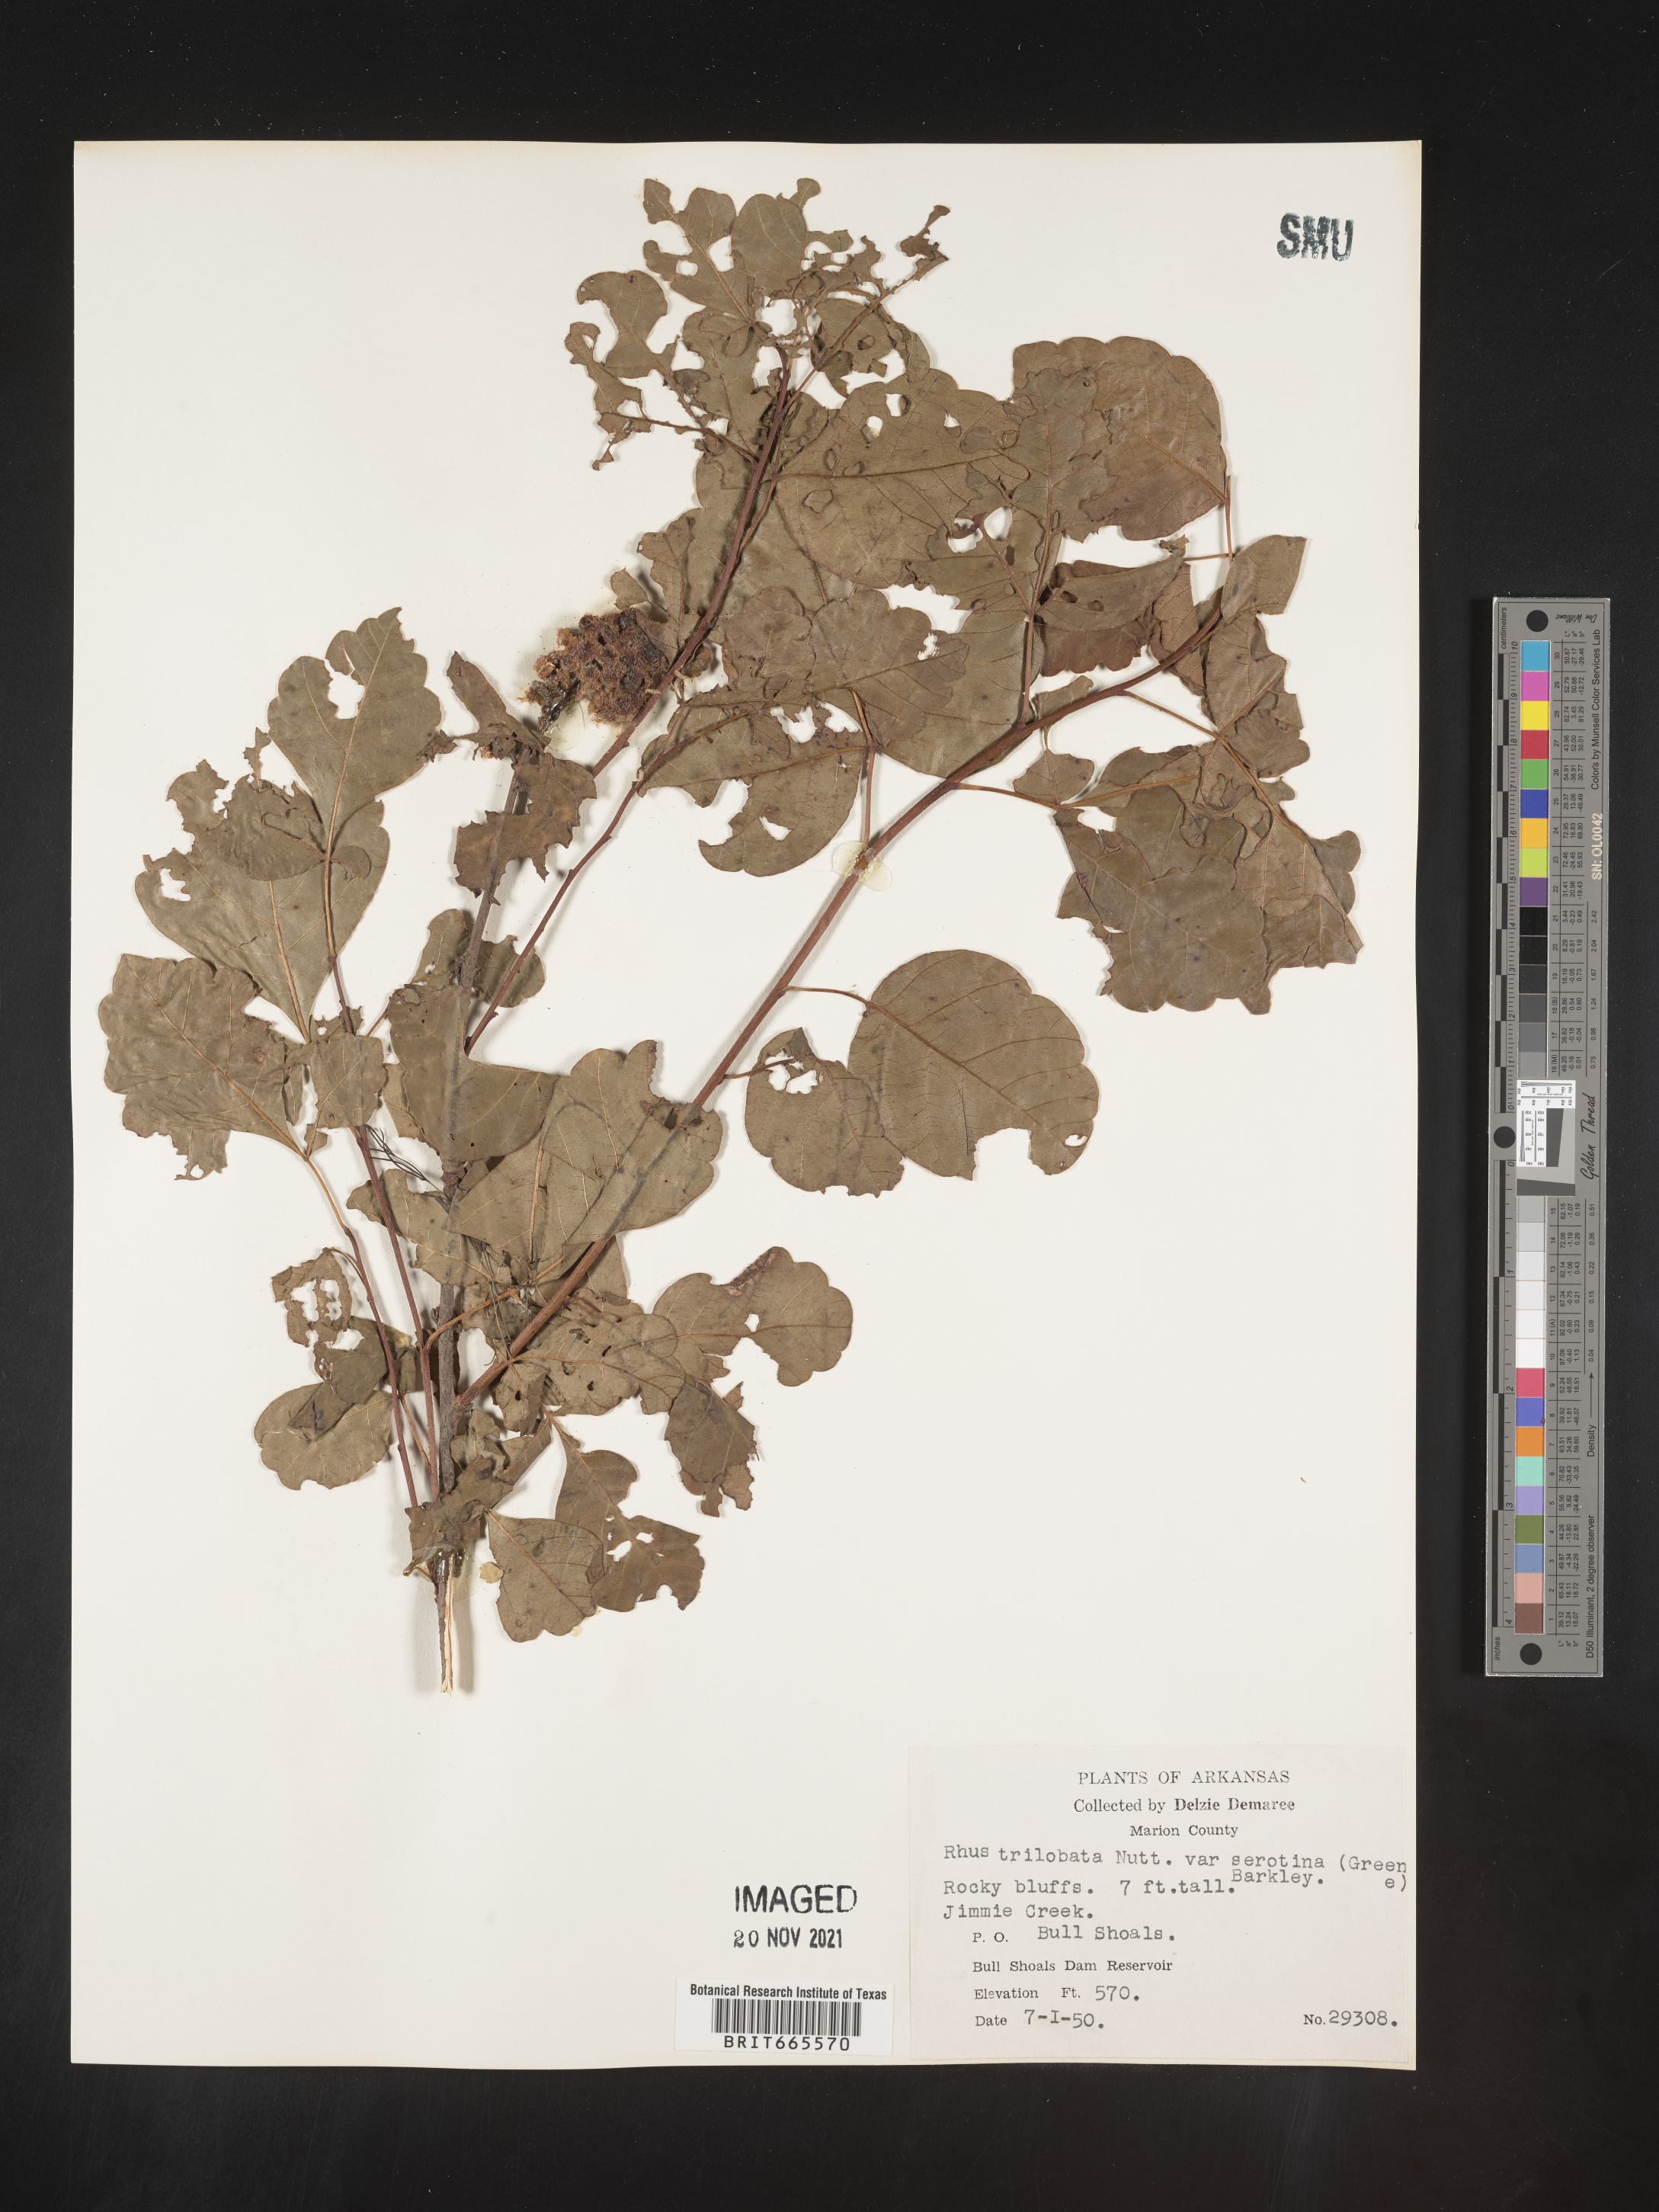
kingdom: Plantae
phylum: Tracheophyta
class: Magnoliopsida
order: Sapindales
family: Anacardiaceae
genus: Rhus
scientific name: Rhus aromatica
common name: Aromatic sumac
